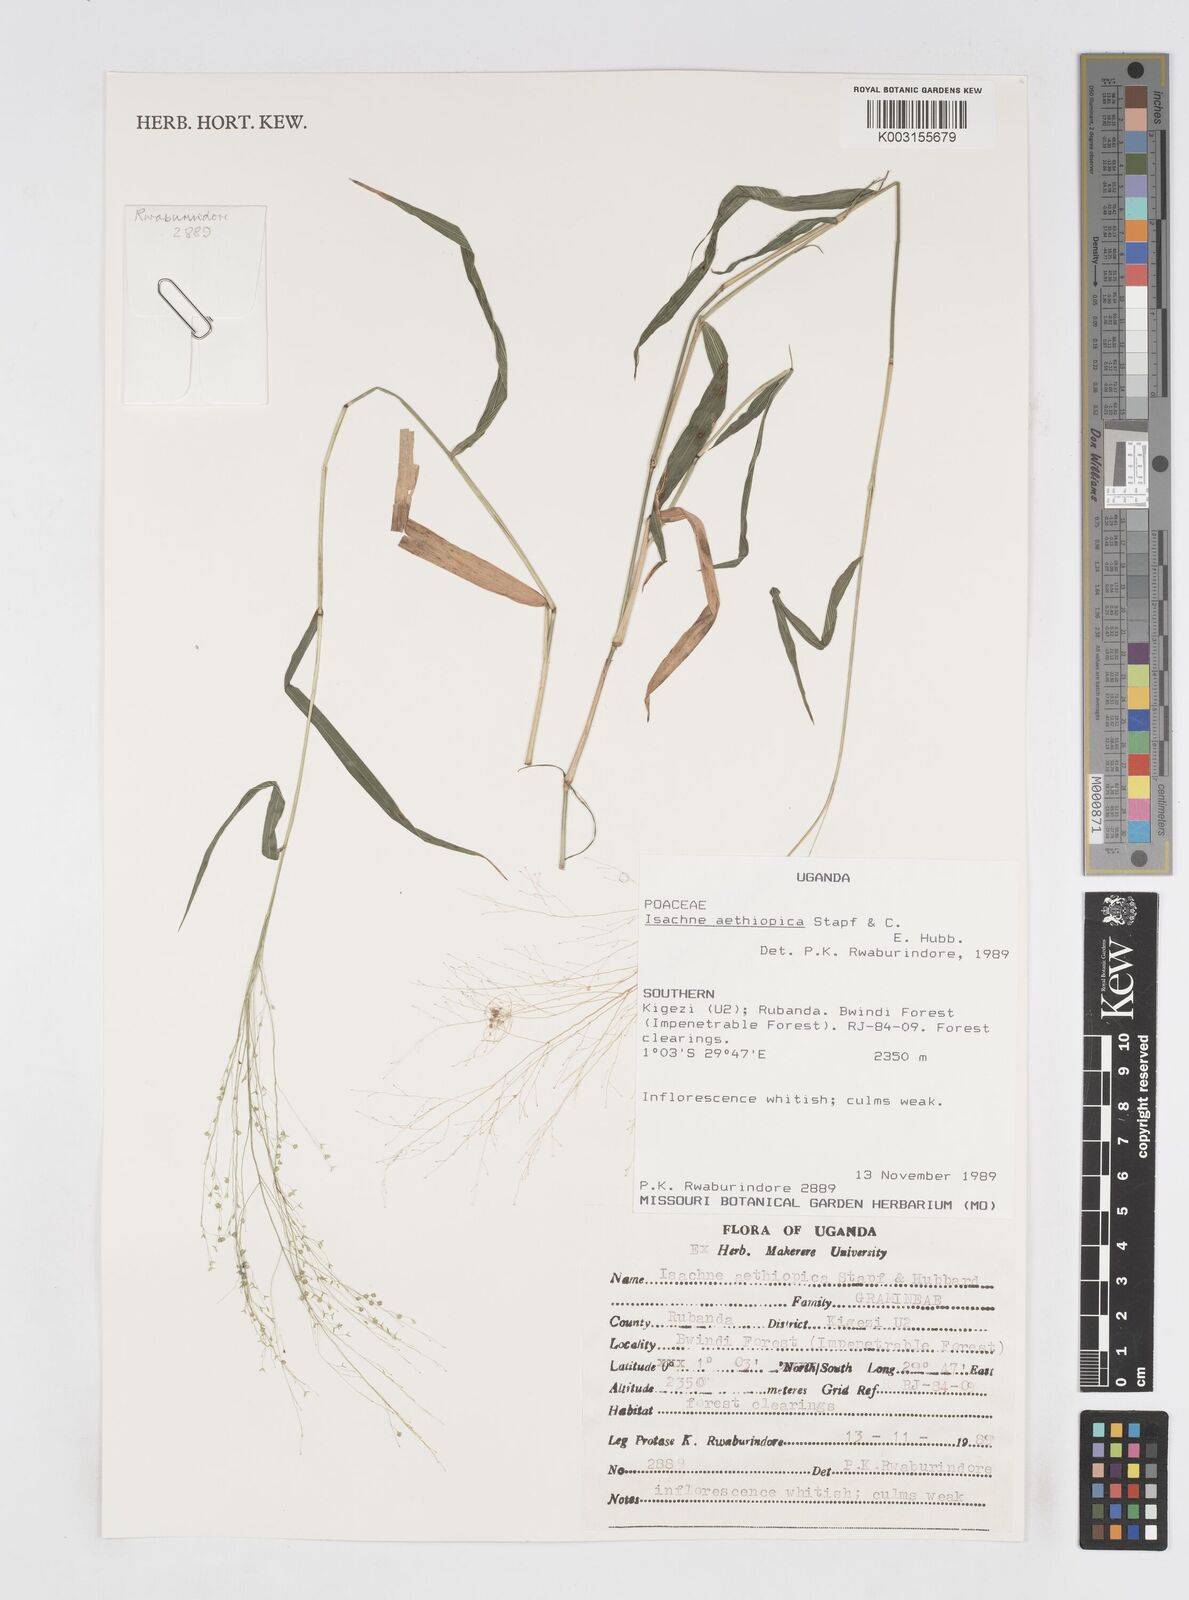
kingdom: Plantae
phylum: Tracheophyta
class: Liliopsida
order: Poales
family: Poaceae
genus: Isachne
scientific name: Isachne mauritiana
